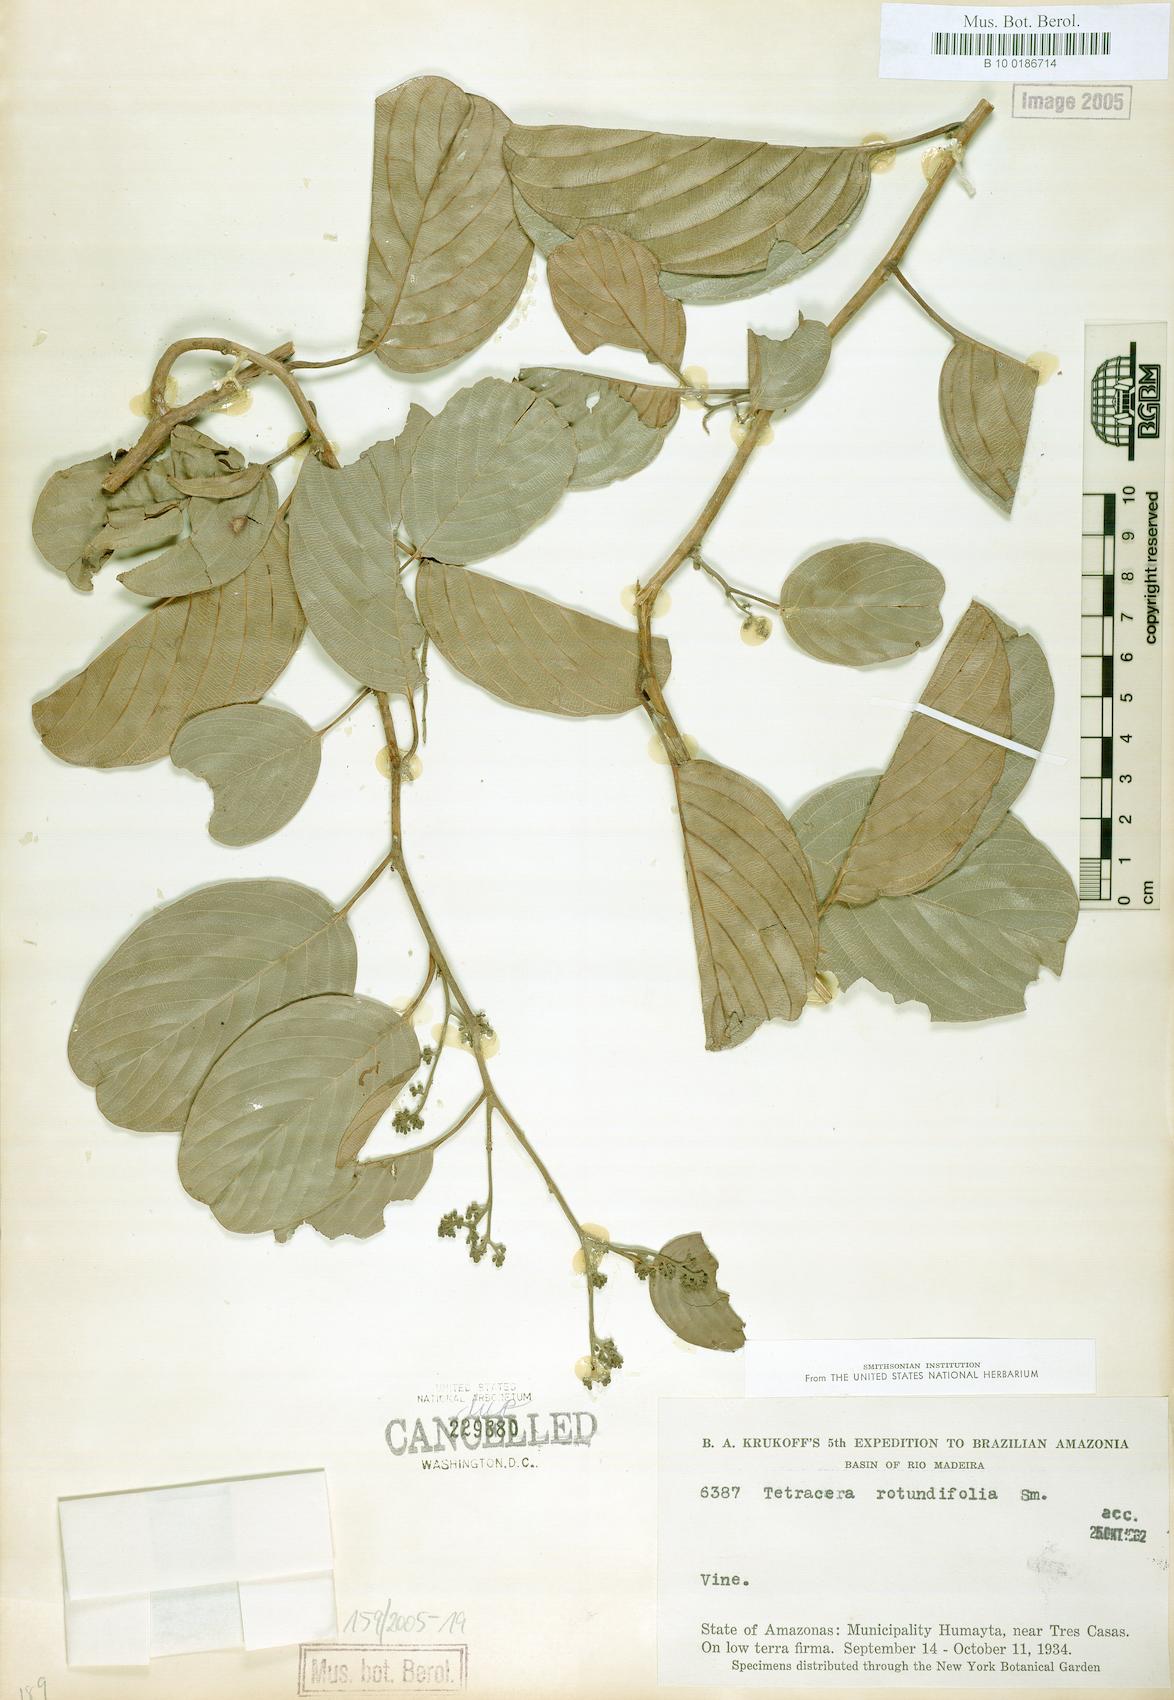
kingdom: Plantae
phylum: Tracheophyta
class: Magnoliopsida
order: Dilleniales
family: Dilleniaceae
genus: Tetracera
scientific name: Tetracera rotundifolia
